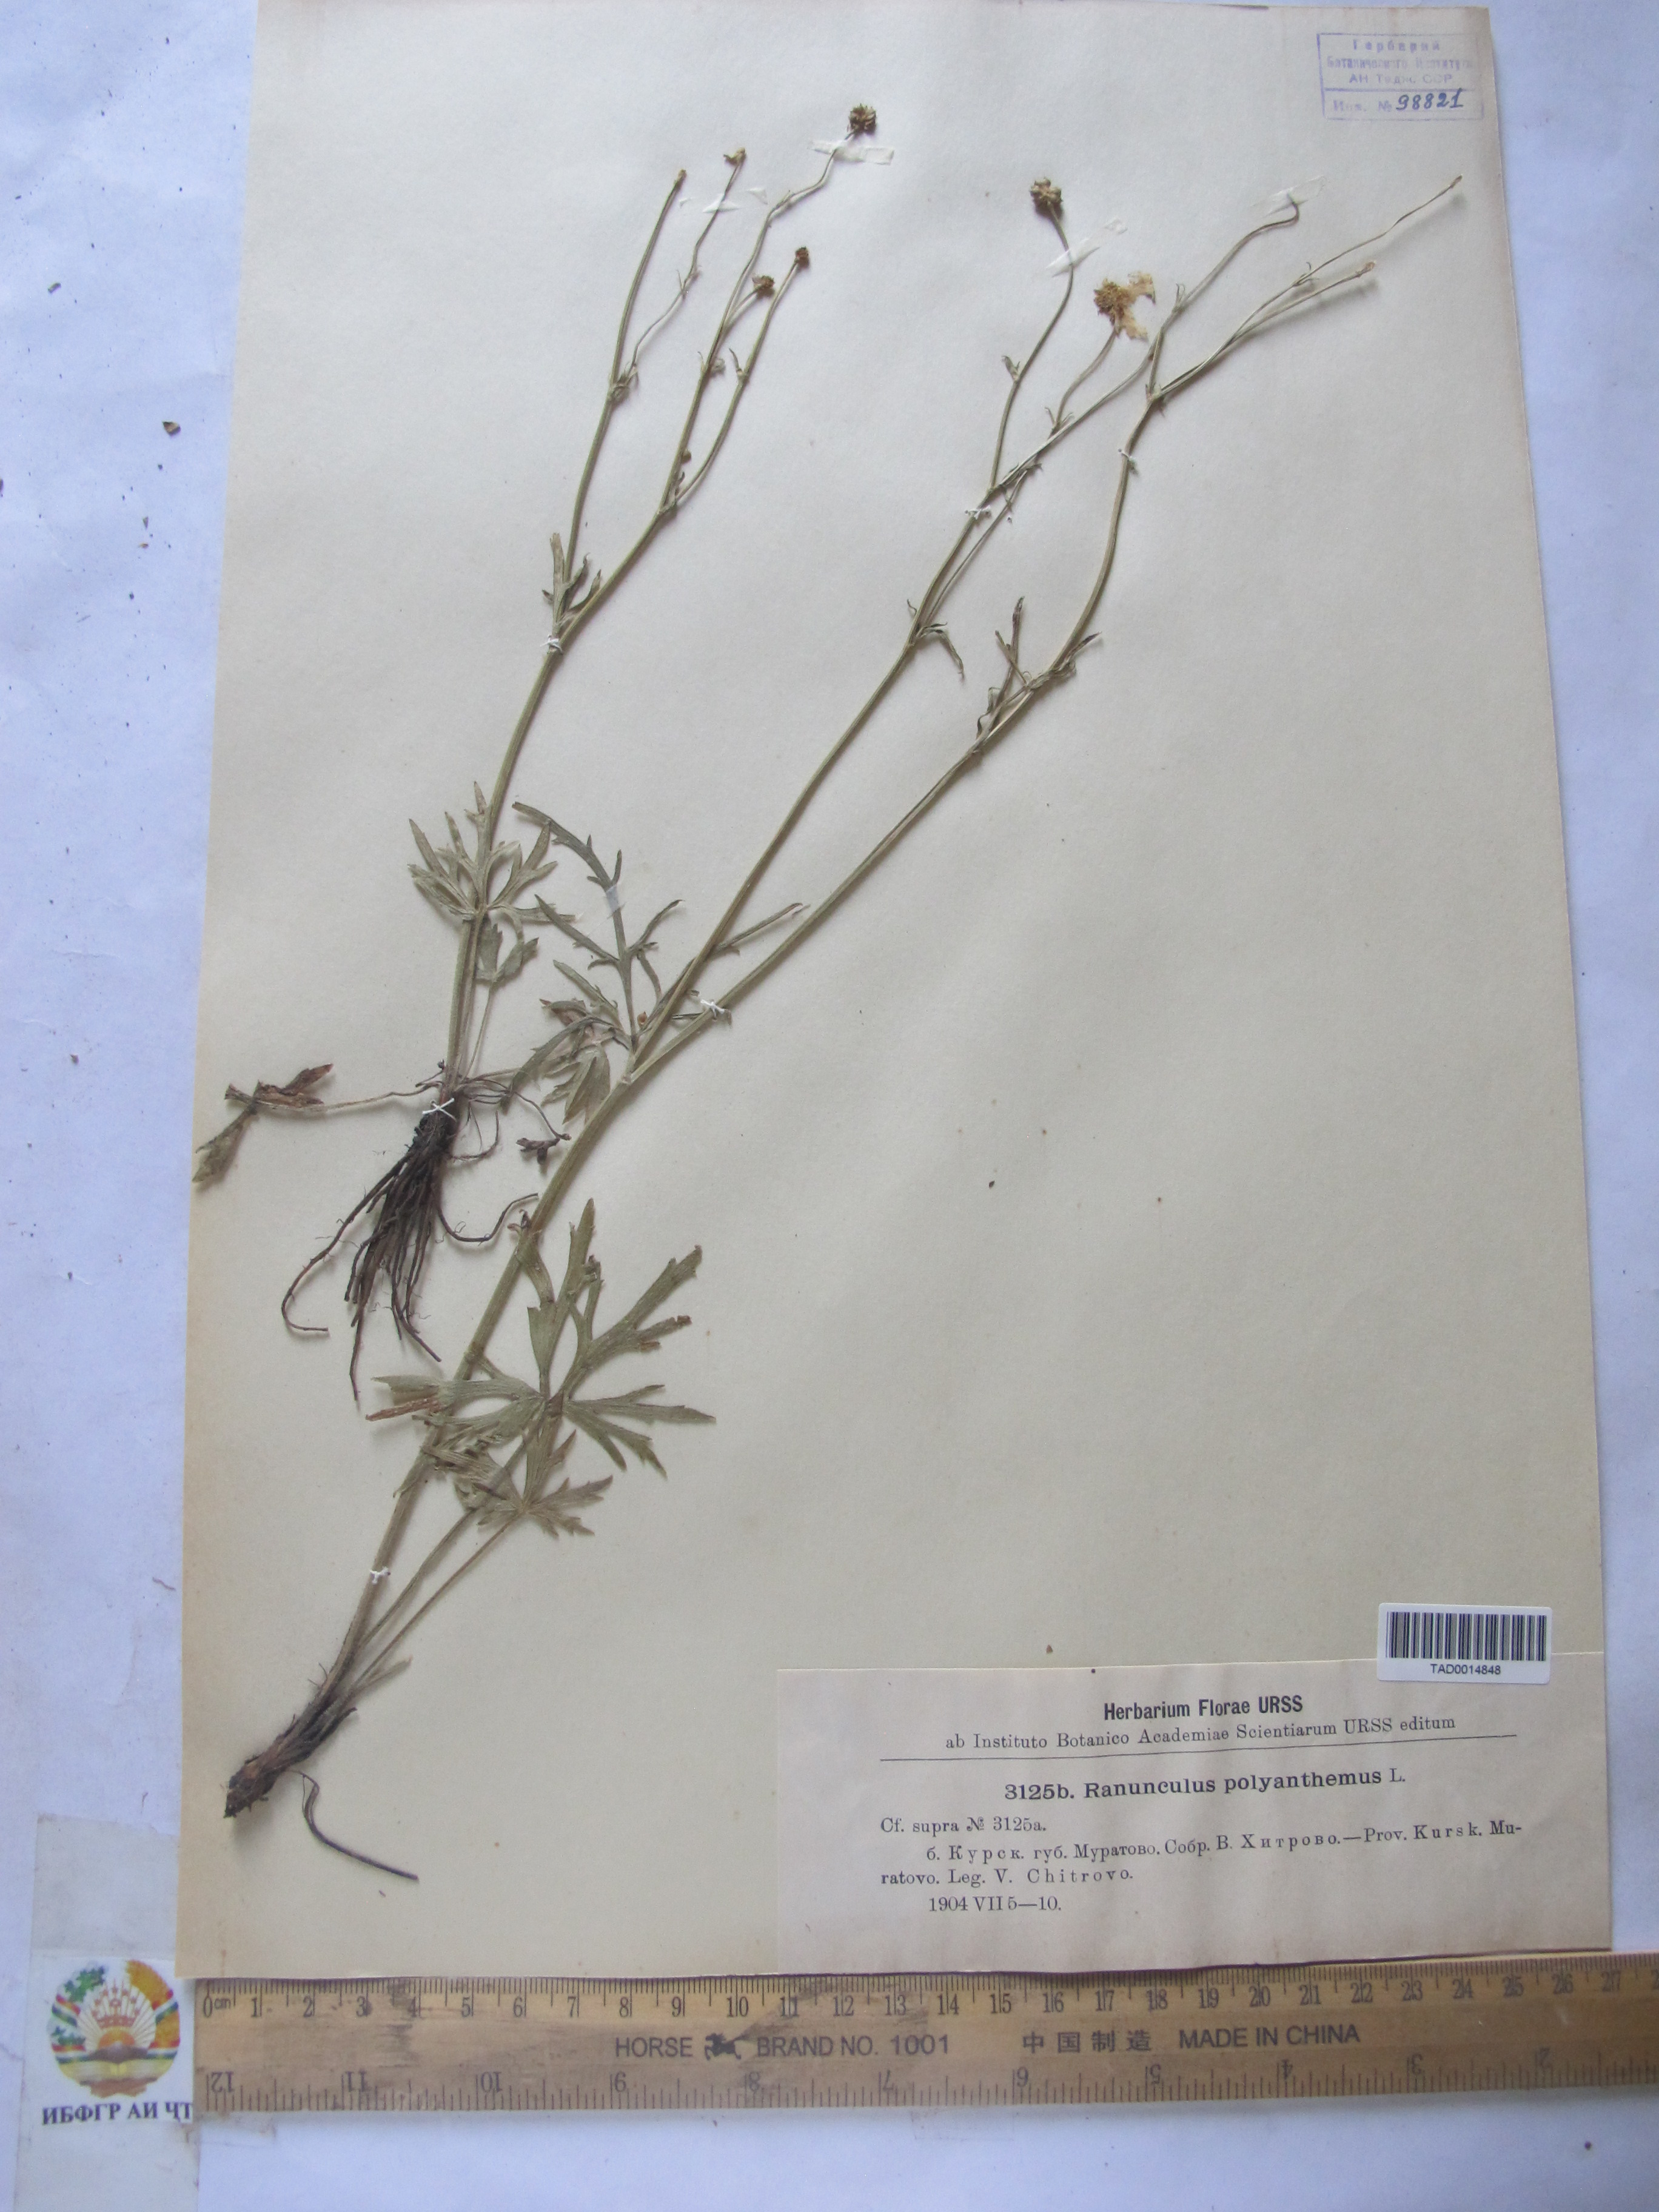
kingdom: Plantae
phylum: Tracheophyta
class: Magnoliopsida
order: Ranunculales
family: Ranunculaceae
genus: Ranunculus
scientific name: Ranunculus polyanthemos
